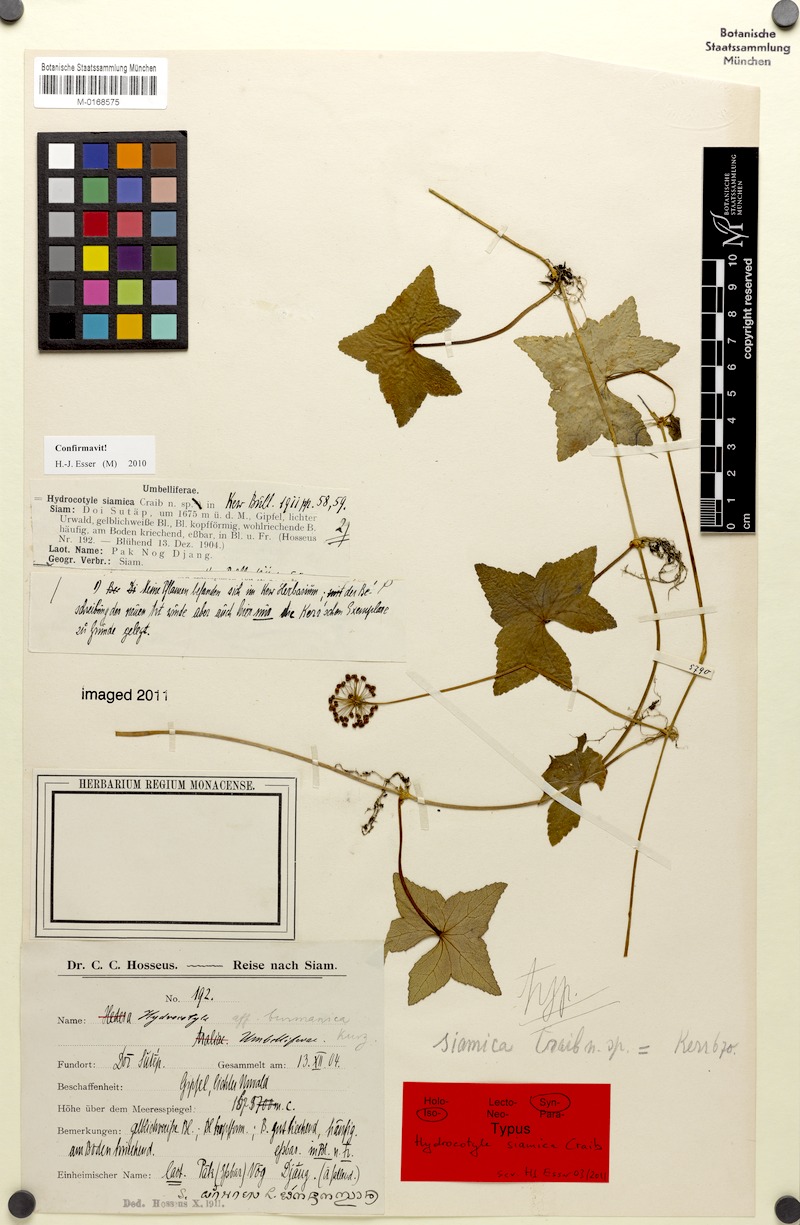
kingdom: Plantae
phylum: Tracheophyta
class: Magnoliopsida
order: Apiales
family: Araliaceae
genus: Hydrocotyle
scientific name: Hydrocotyle hookeri
